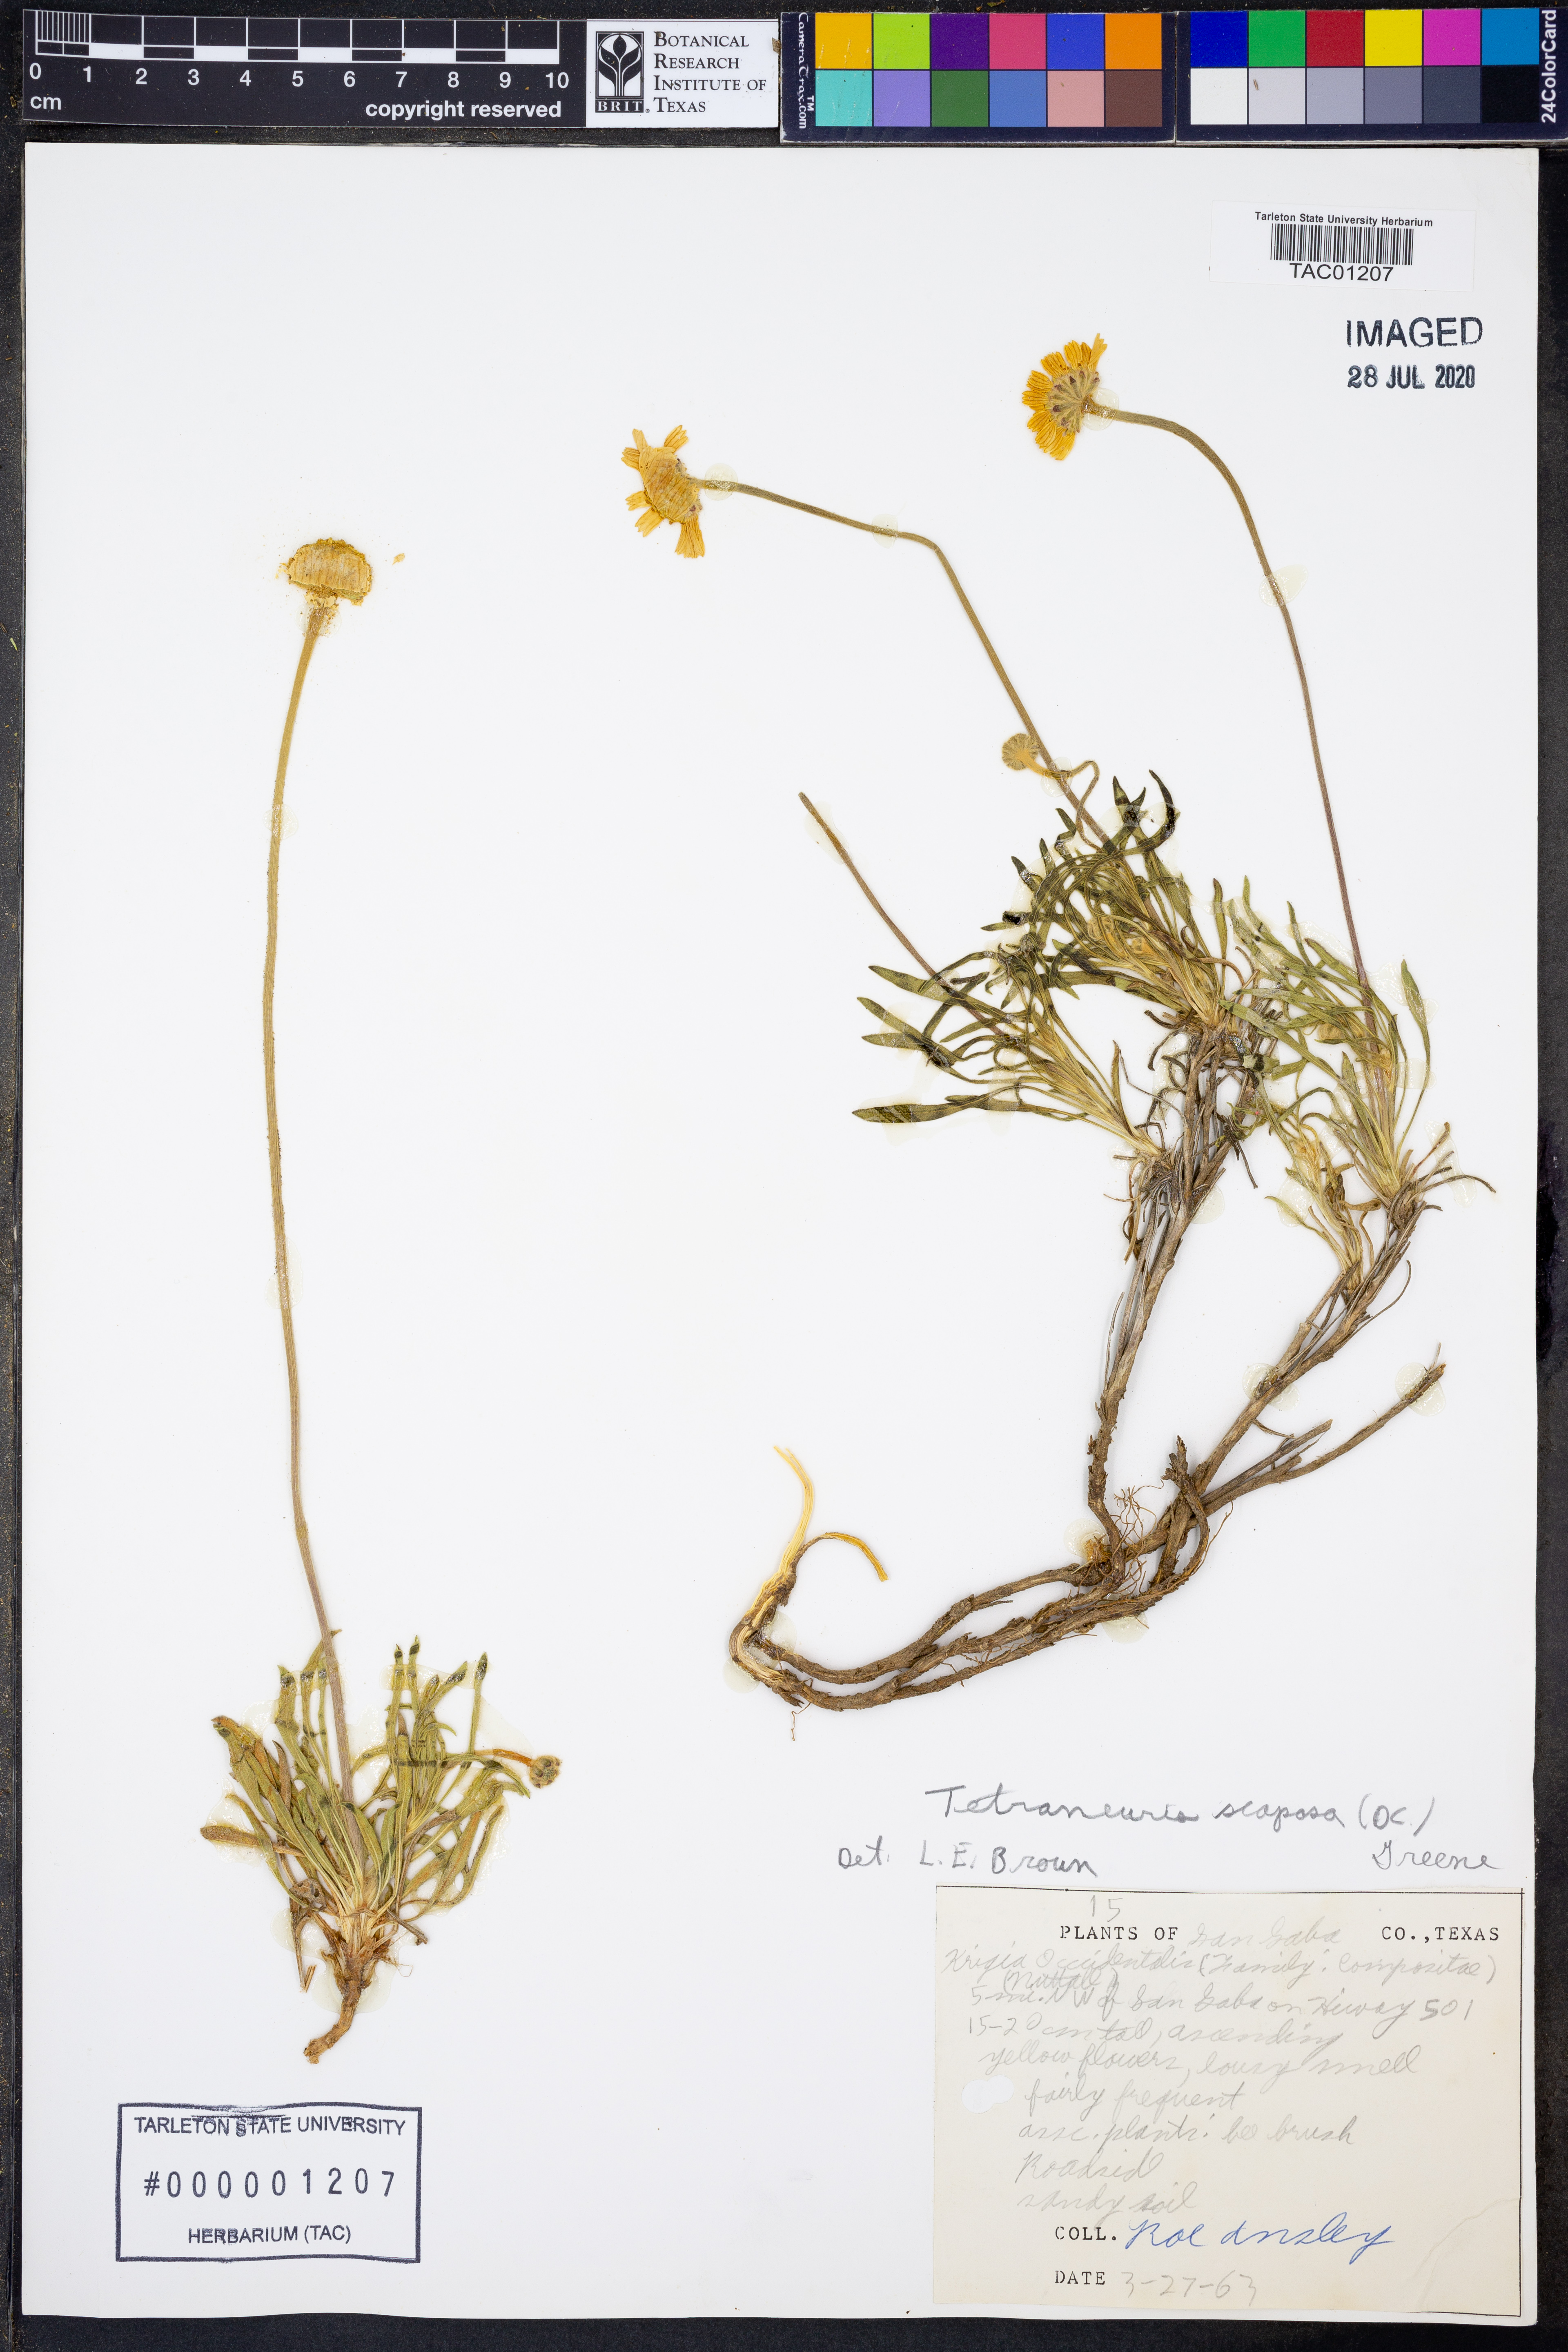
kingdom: Plantae
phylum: Tracheophyta
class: Magnoliopsida
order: Asterales
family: Asteraceae
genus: Tetraneuris
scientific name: Tetraneuris scaposa
